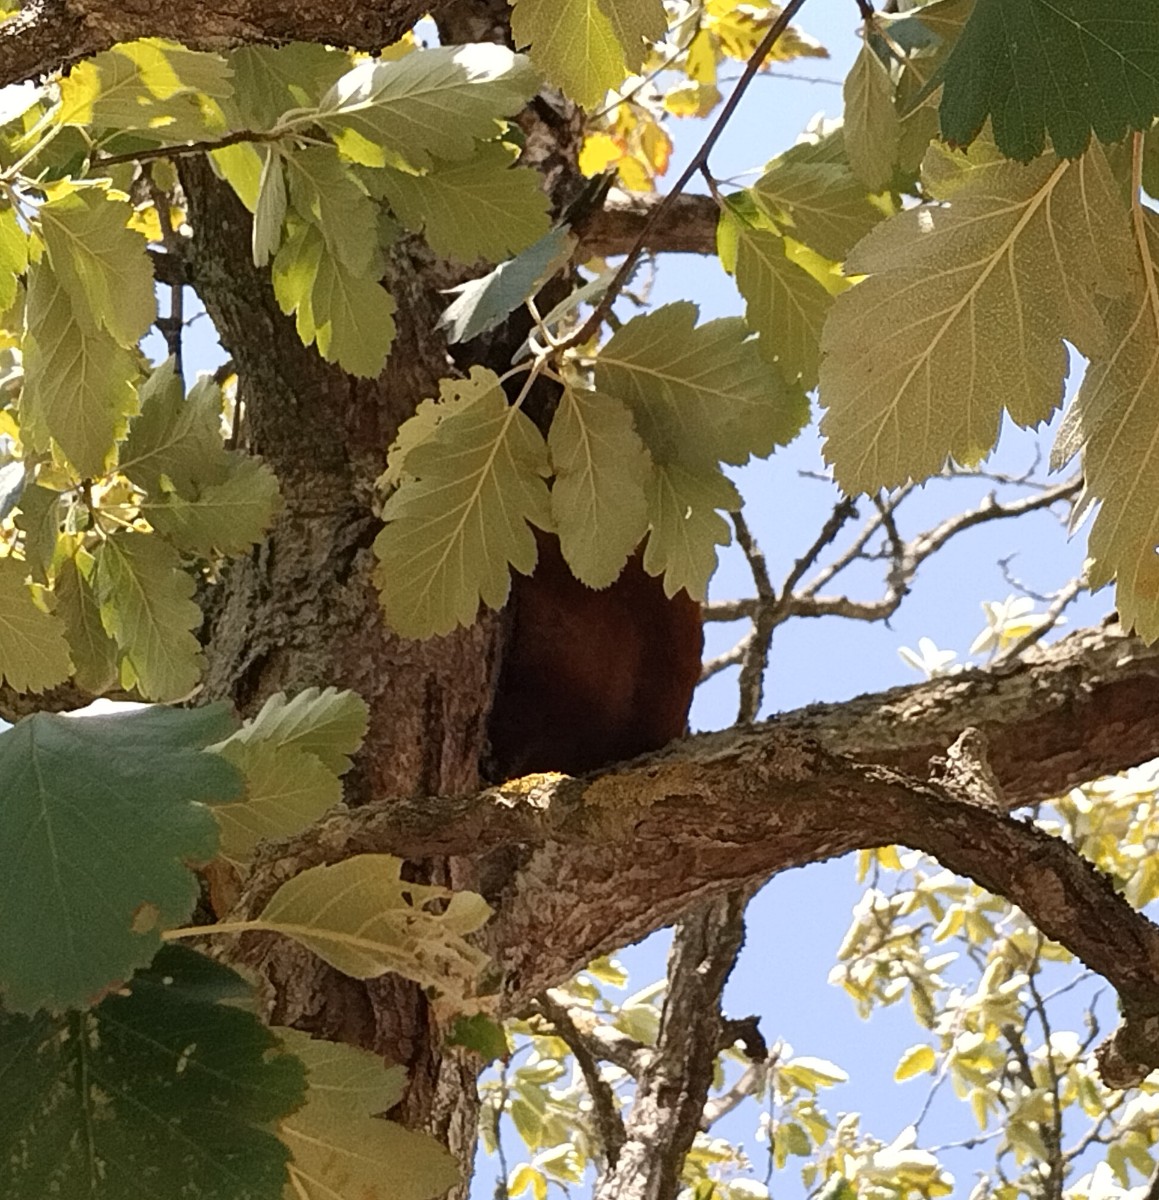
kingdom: Fungi
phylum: Basidiomycota
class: Agaricomycetes
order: Hymenochaetales
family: Hymenochaetaceae
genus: Inonotus
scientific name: Inonotus hispidus
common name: børstehåret spejlporesvamp
